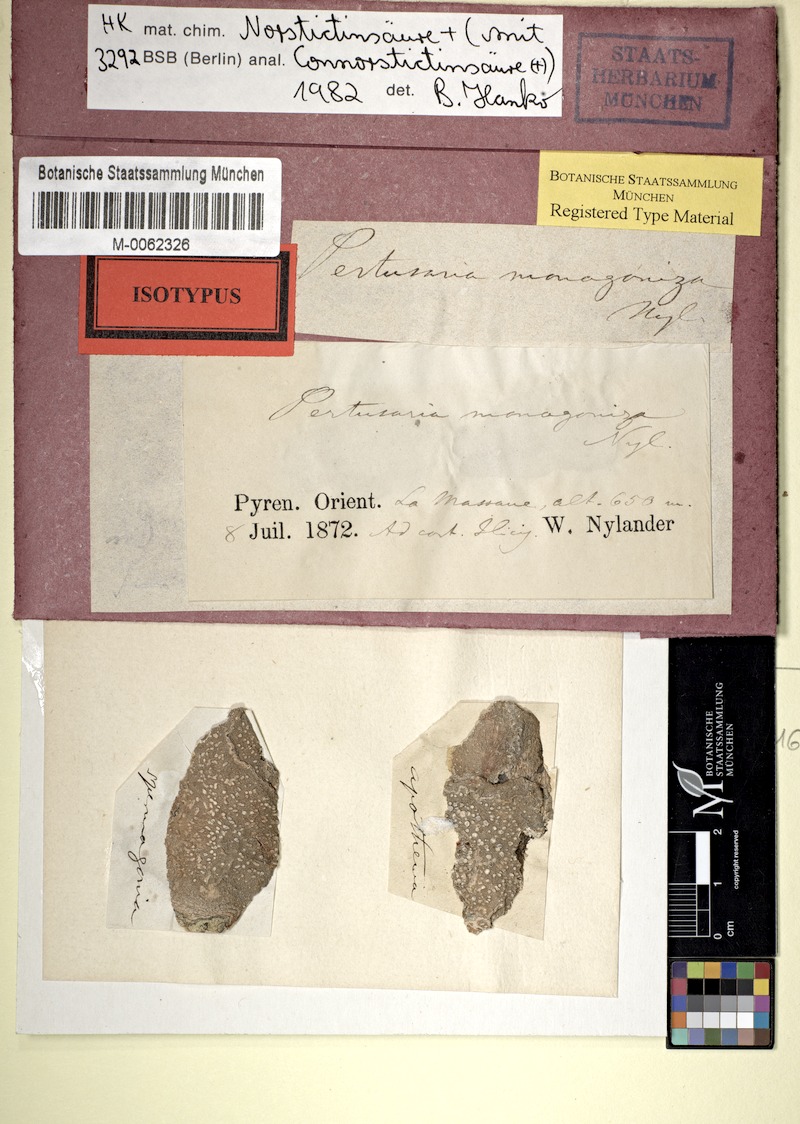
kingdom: Fungi
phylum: Ascomycota
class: Lecanoromycetes
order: Pertusariales
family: Pertusariaceae
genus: Pertusaria
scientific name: Pertusaria monogoniza
